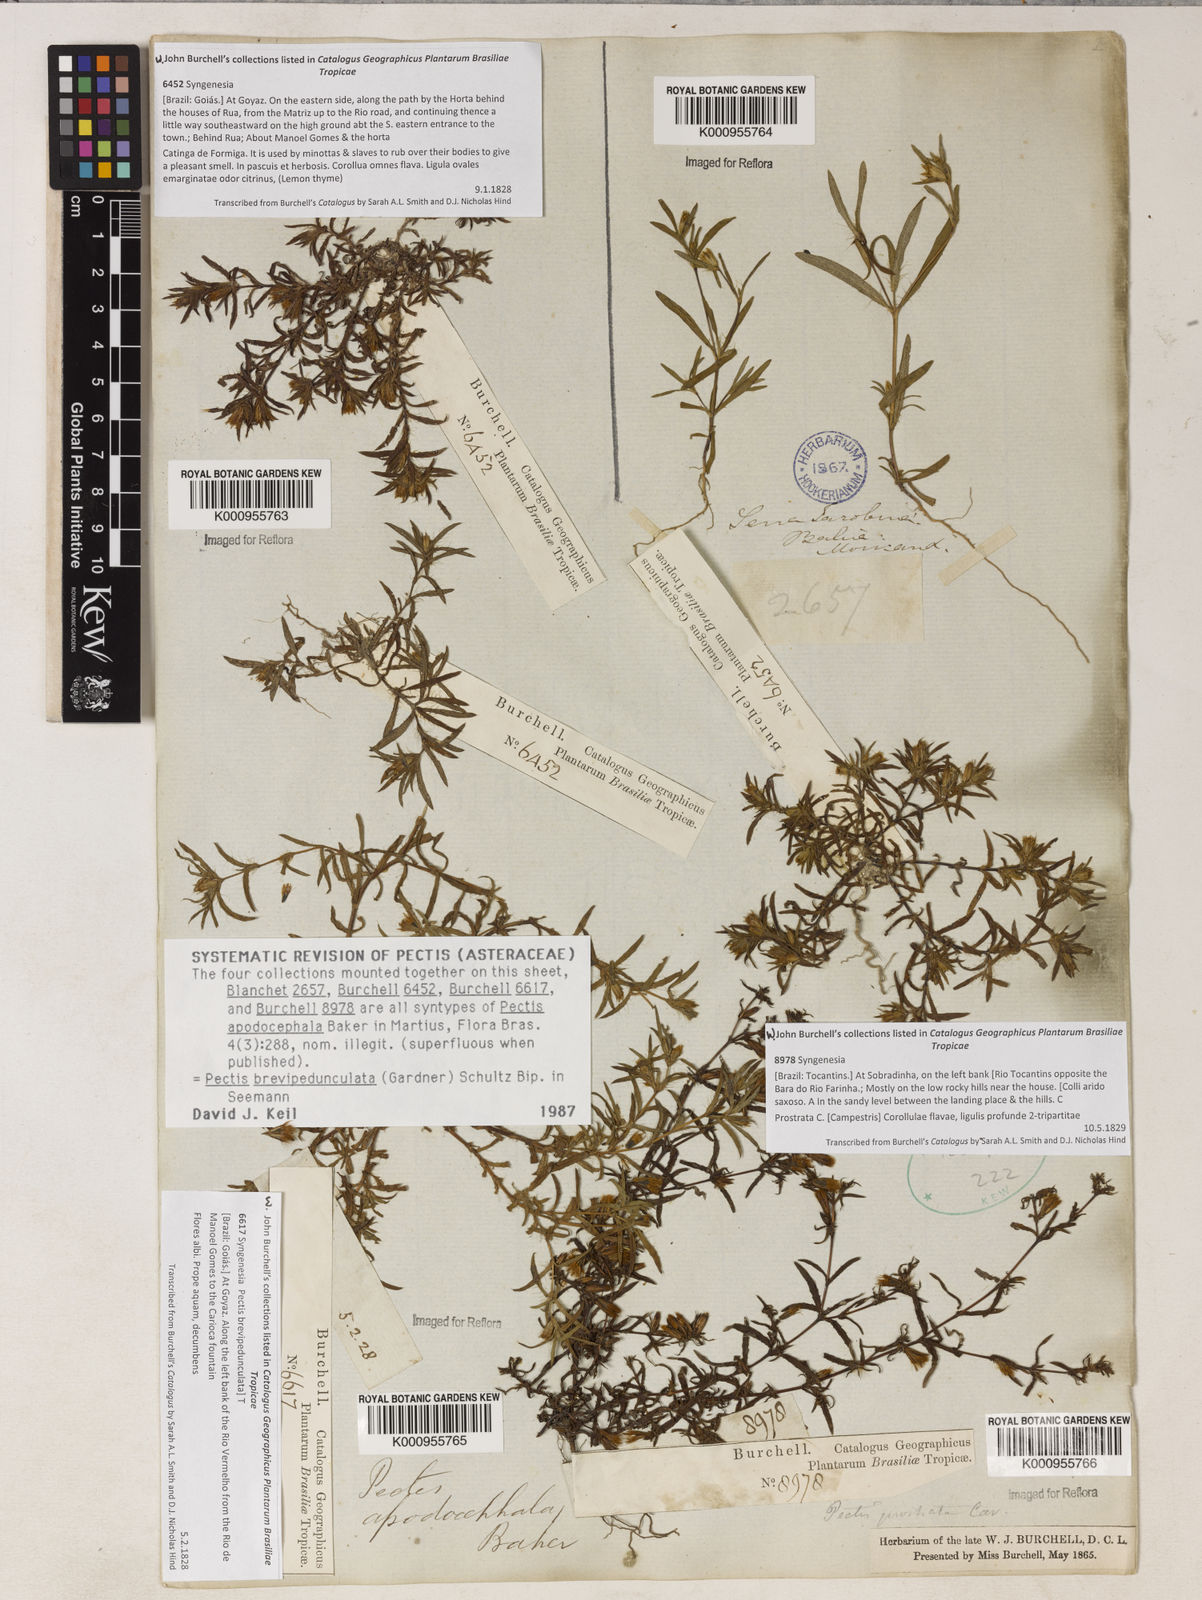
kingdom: Plantae
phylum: Tracheophyta
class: Magnoliopsida
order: Asterales
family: Asteraceae
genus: Pectis
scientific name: Pectis brevipedunculata
